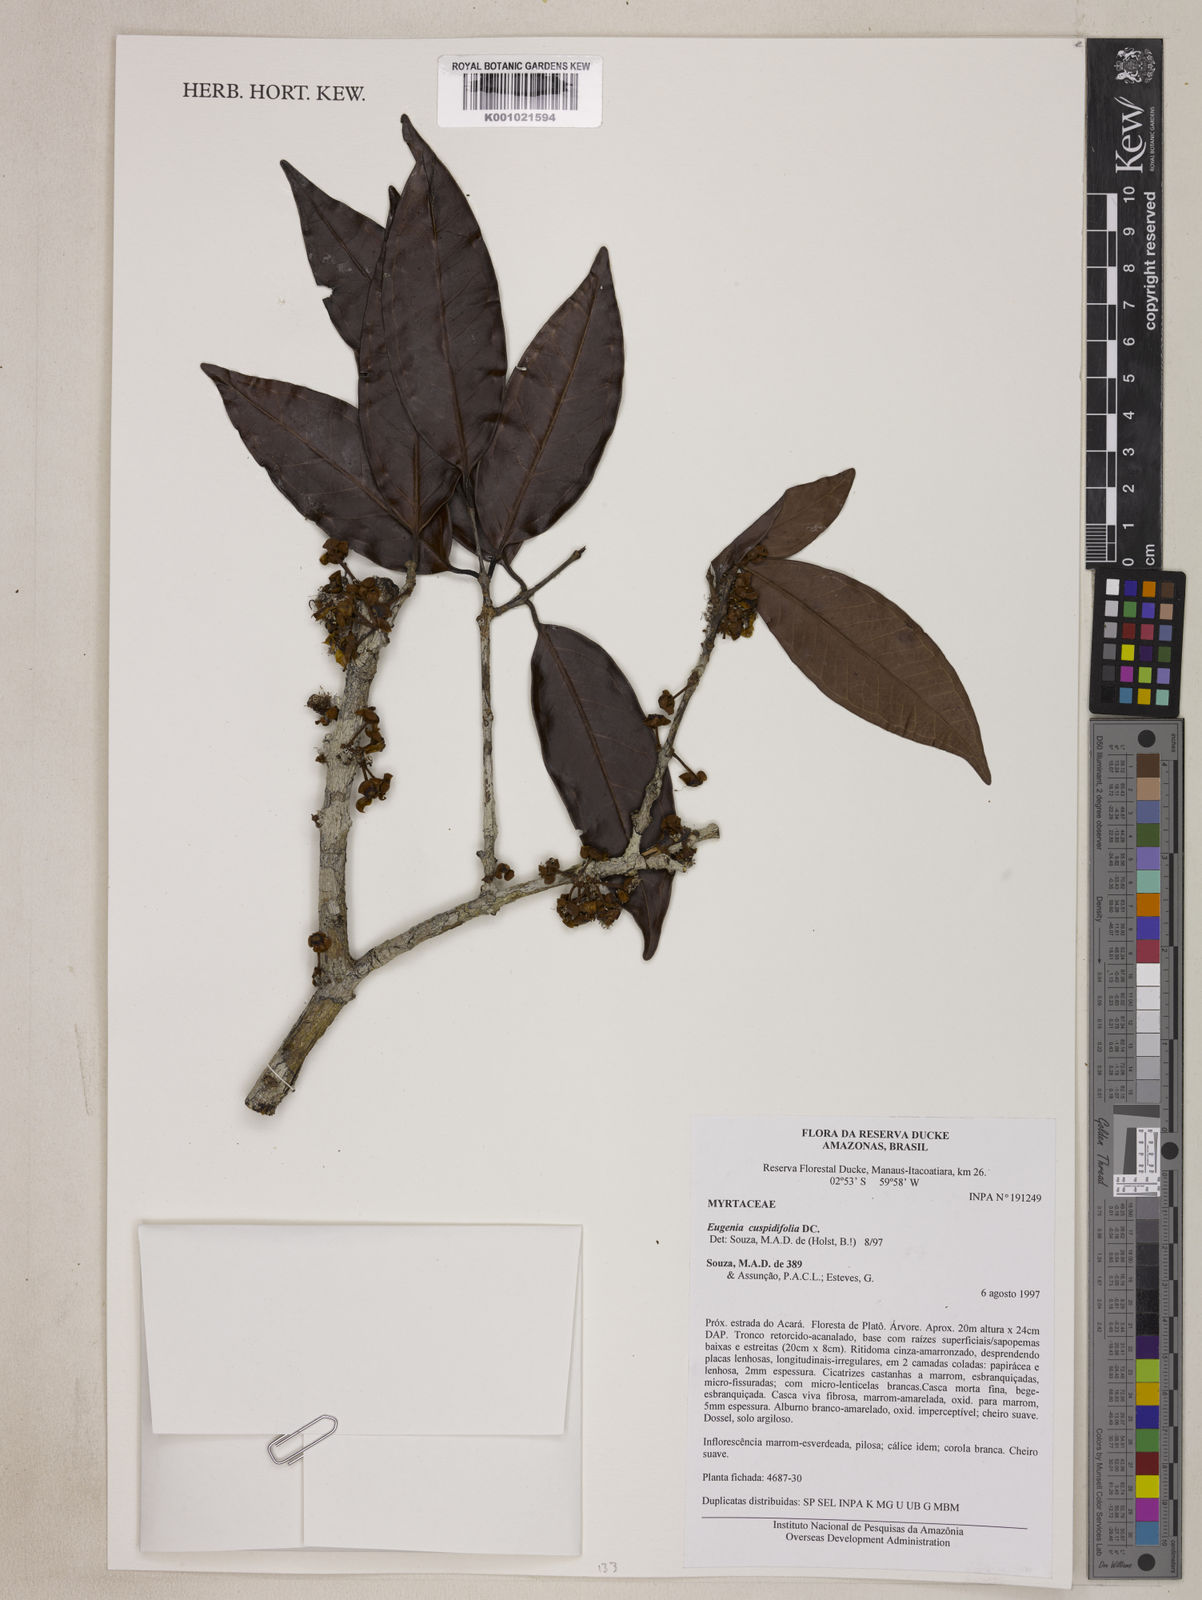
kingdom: Plantae
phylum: Tracheophyta
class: Magnoliopsida
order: Myrtales
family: Myrtaceae
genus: Eugenia
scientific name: Eugenia solimoensis
